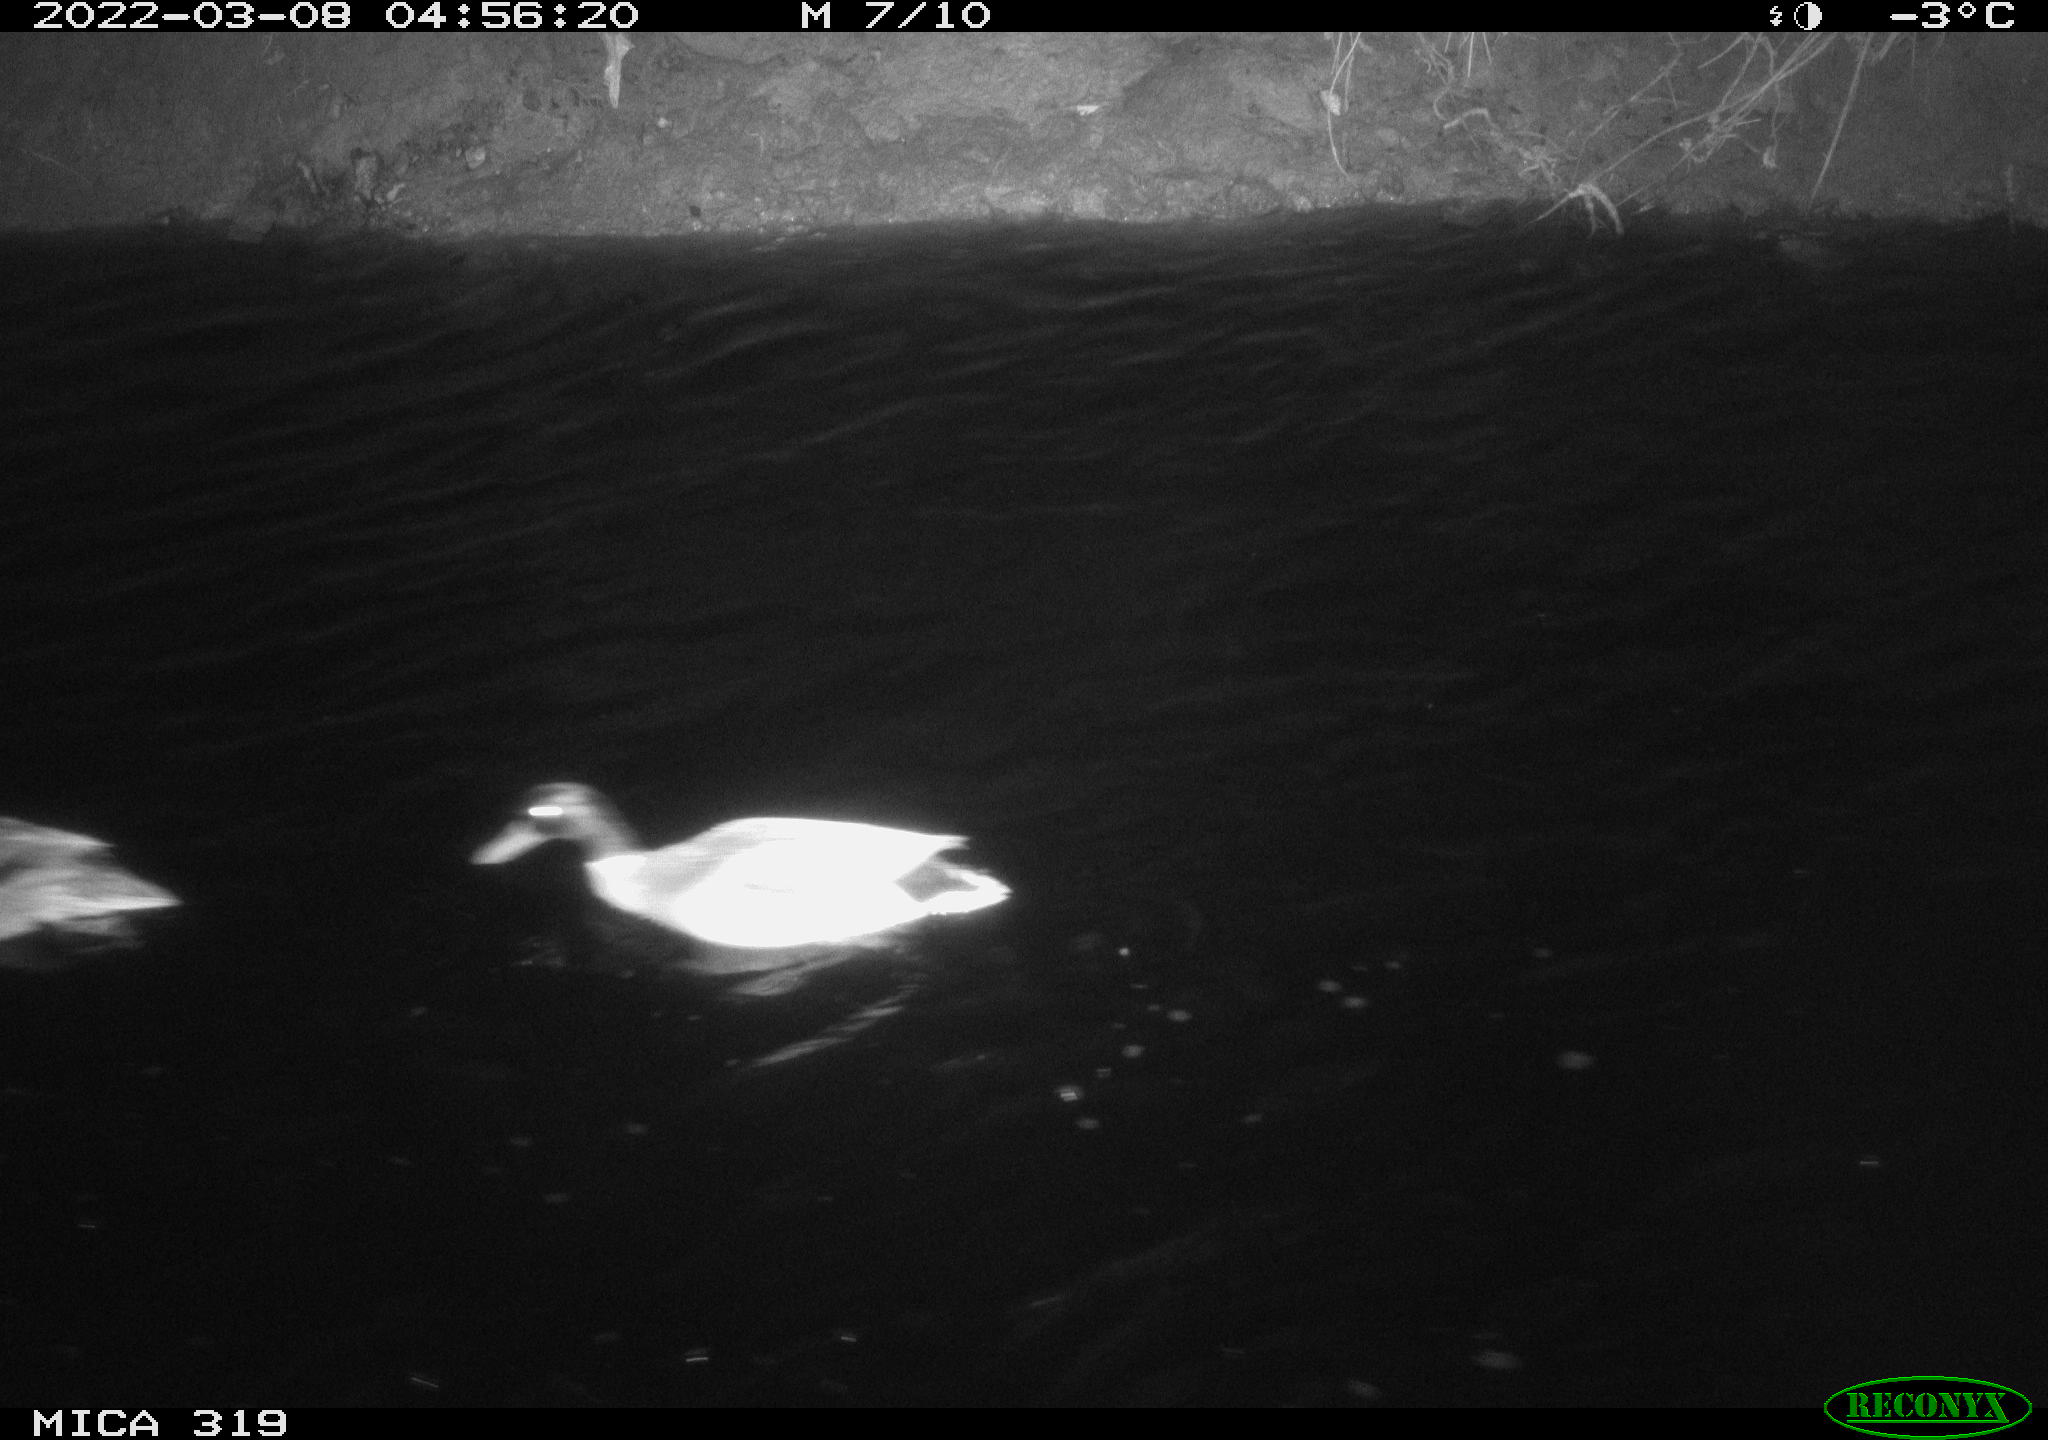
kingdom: Animalia
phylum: Chordata
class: Aves
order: Anseriformes
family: Anatidae
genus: Anas
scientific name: Anas platyrhynchos
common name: Mallard
